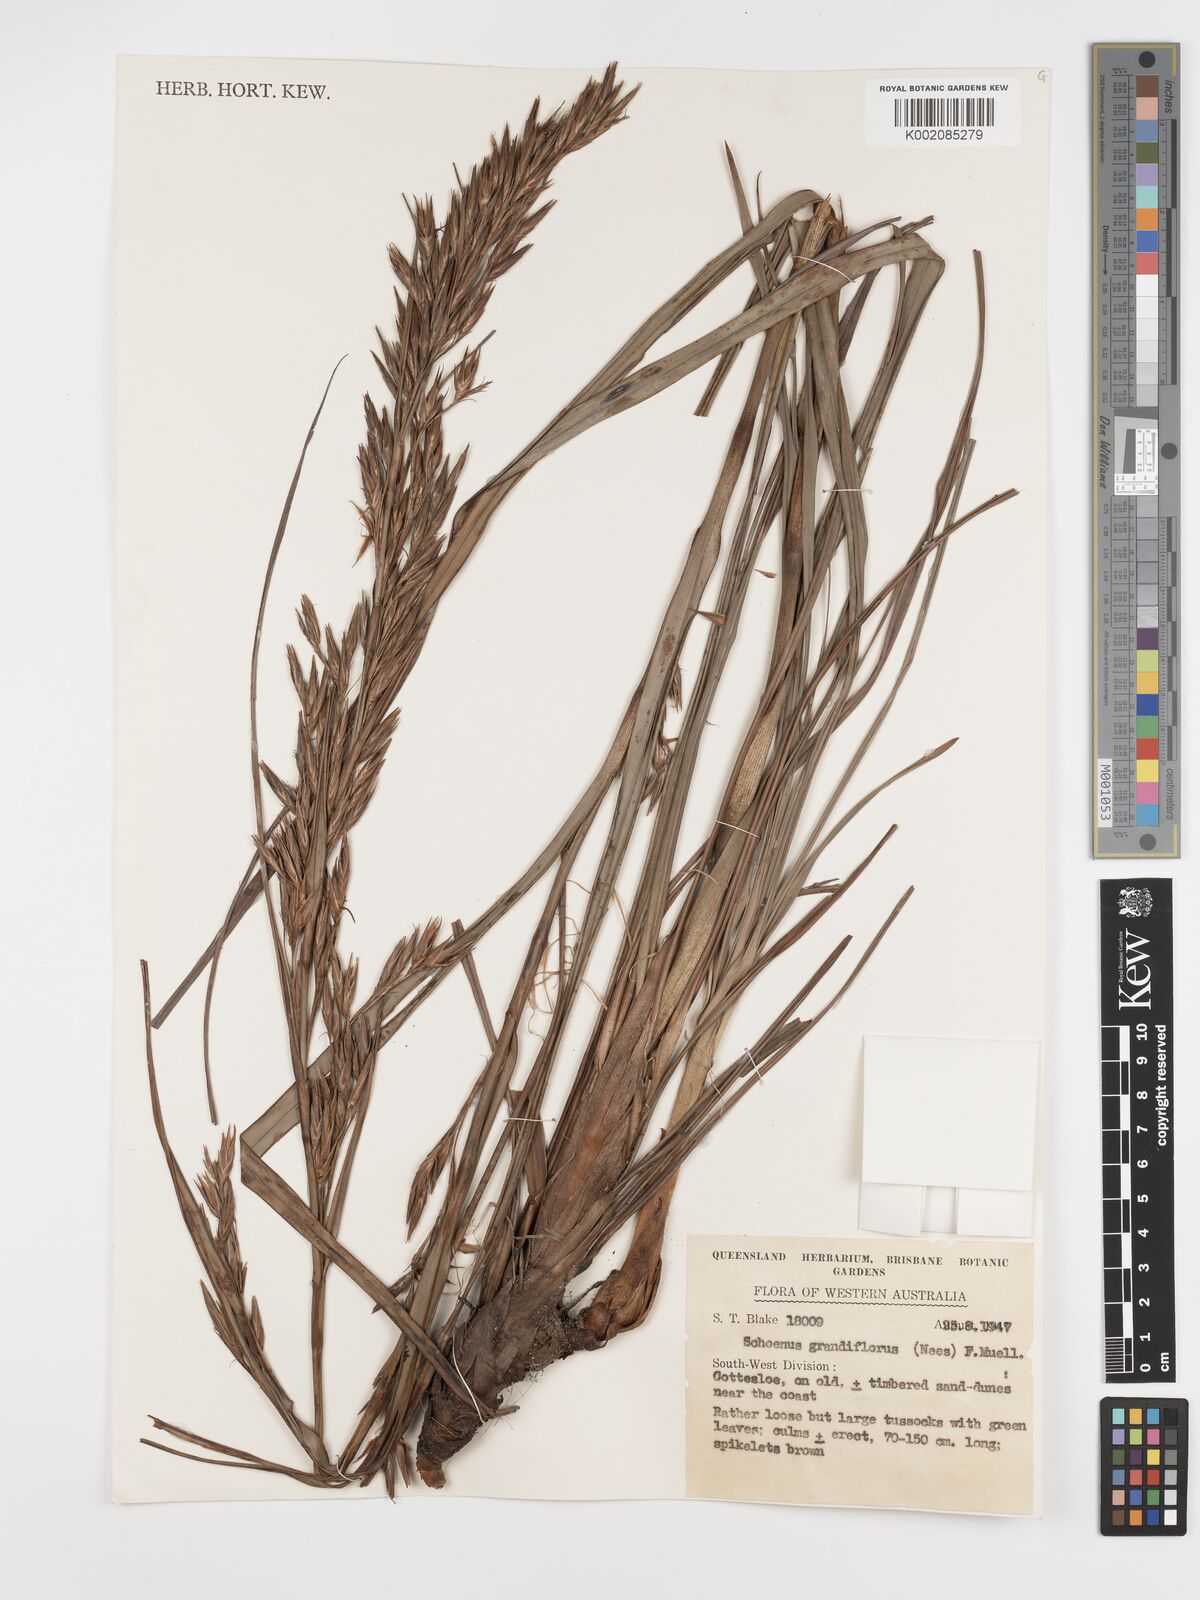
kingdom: Plantae
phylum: Tracheophyta
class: Liliopsida
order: Poales
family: Cyperaceae
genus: Schoenus
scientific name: Schoenus grandiflorus
